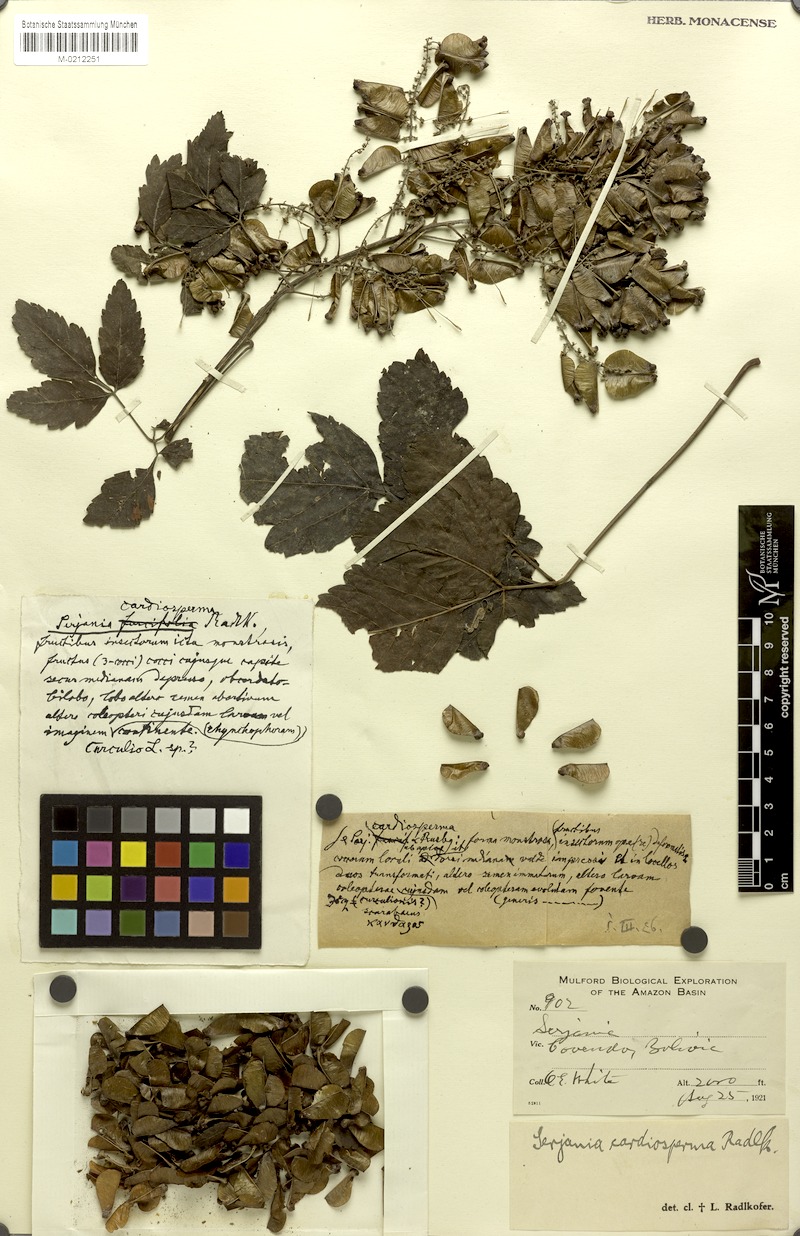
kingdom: Plantae
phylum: Tracheophyta
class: Magnoliopsida
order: Sapindales
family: Sapindaceae
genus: Serjania
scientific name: Serjania
